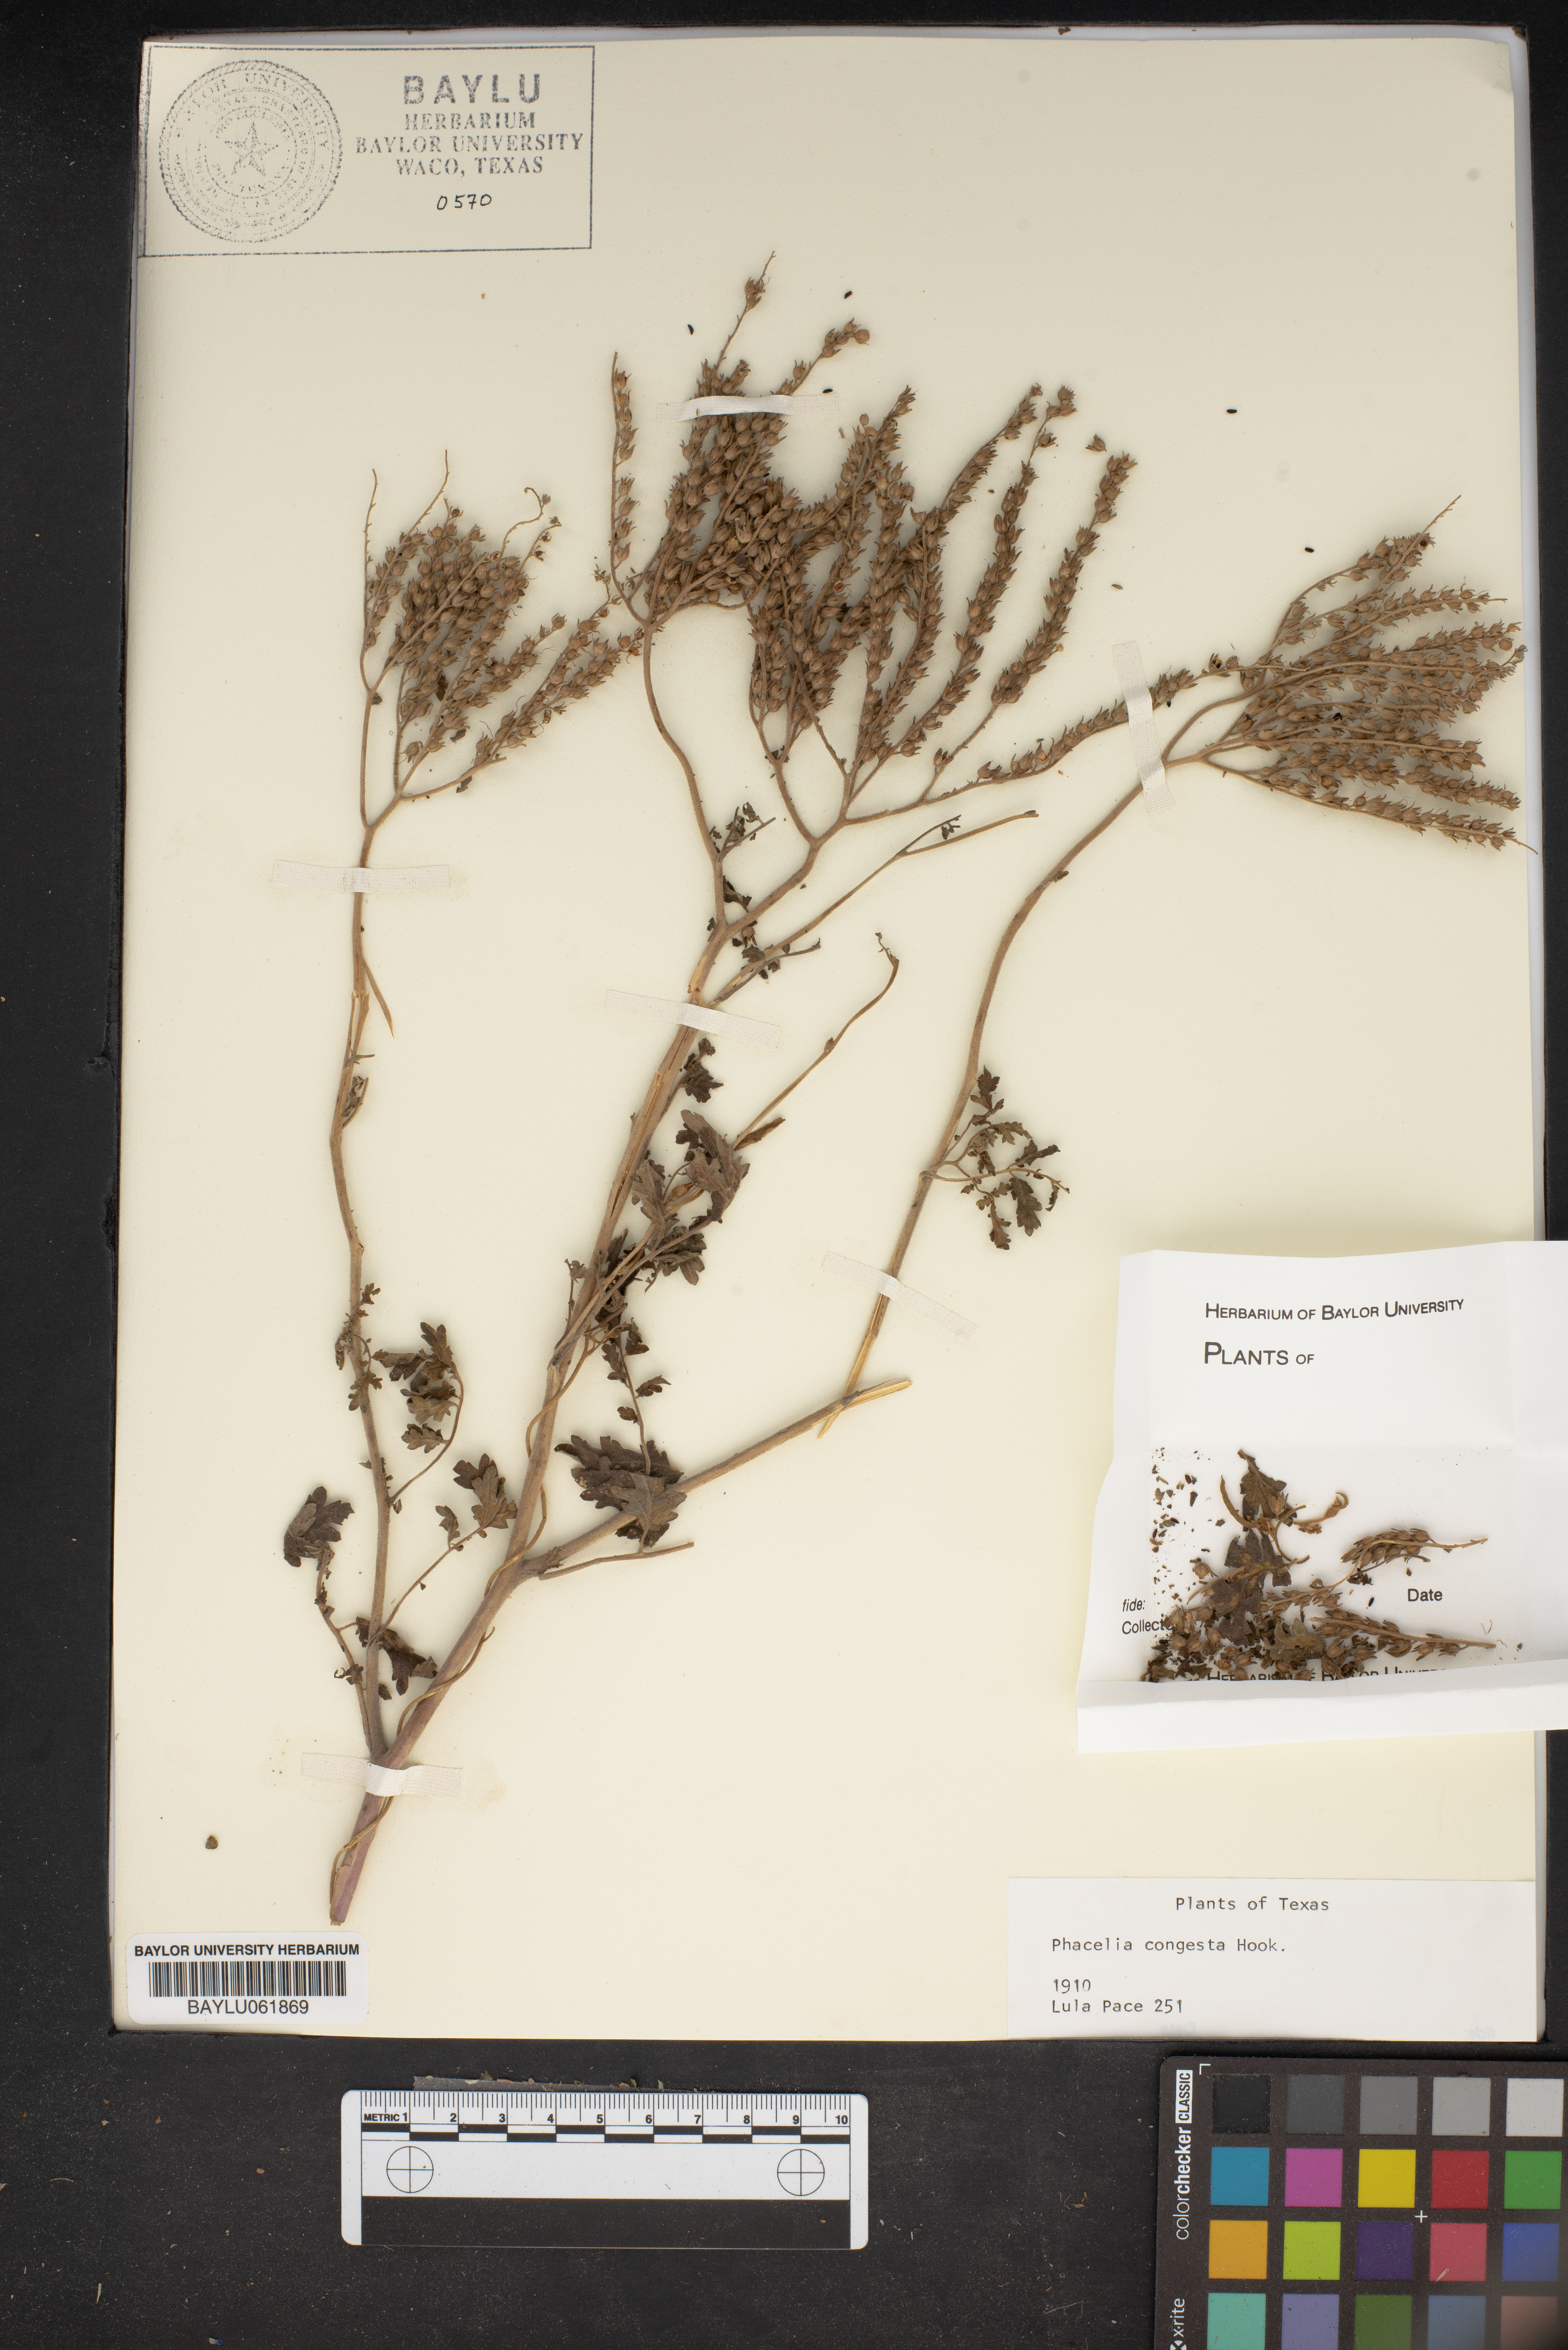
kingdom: Plantae
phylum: Tracheophyta
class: Magnoliopsida
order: Boraginales
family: Hydrophyllaceae
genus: Phacelia
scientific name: Phacelia congesta
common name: Blue curls
